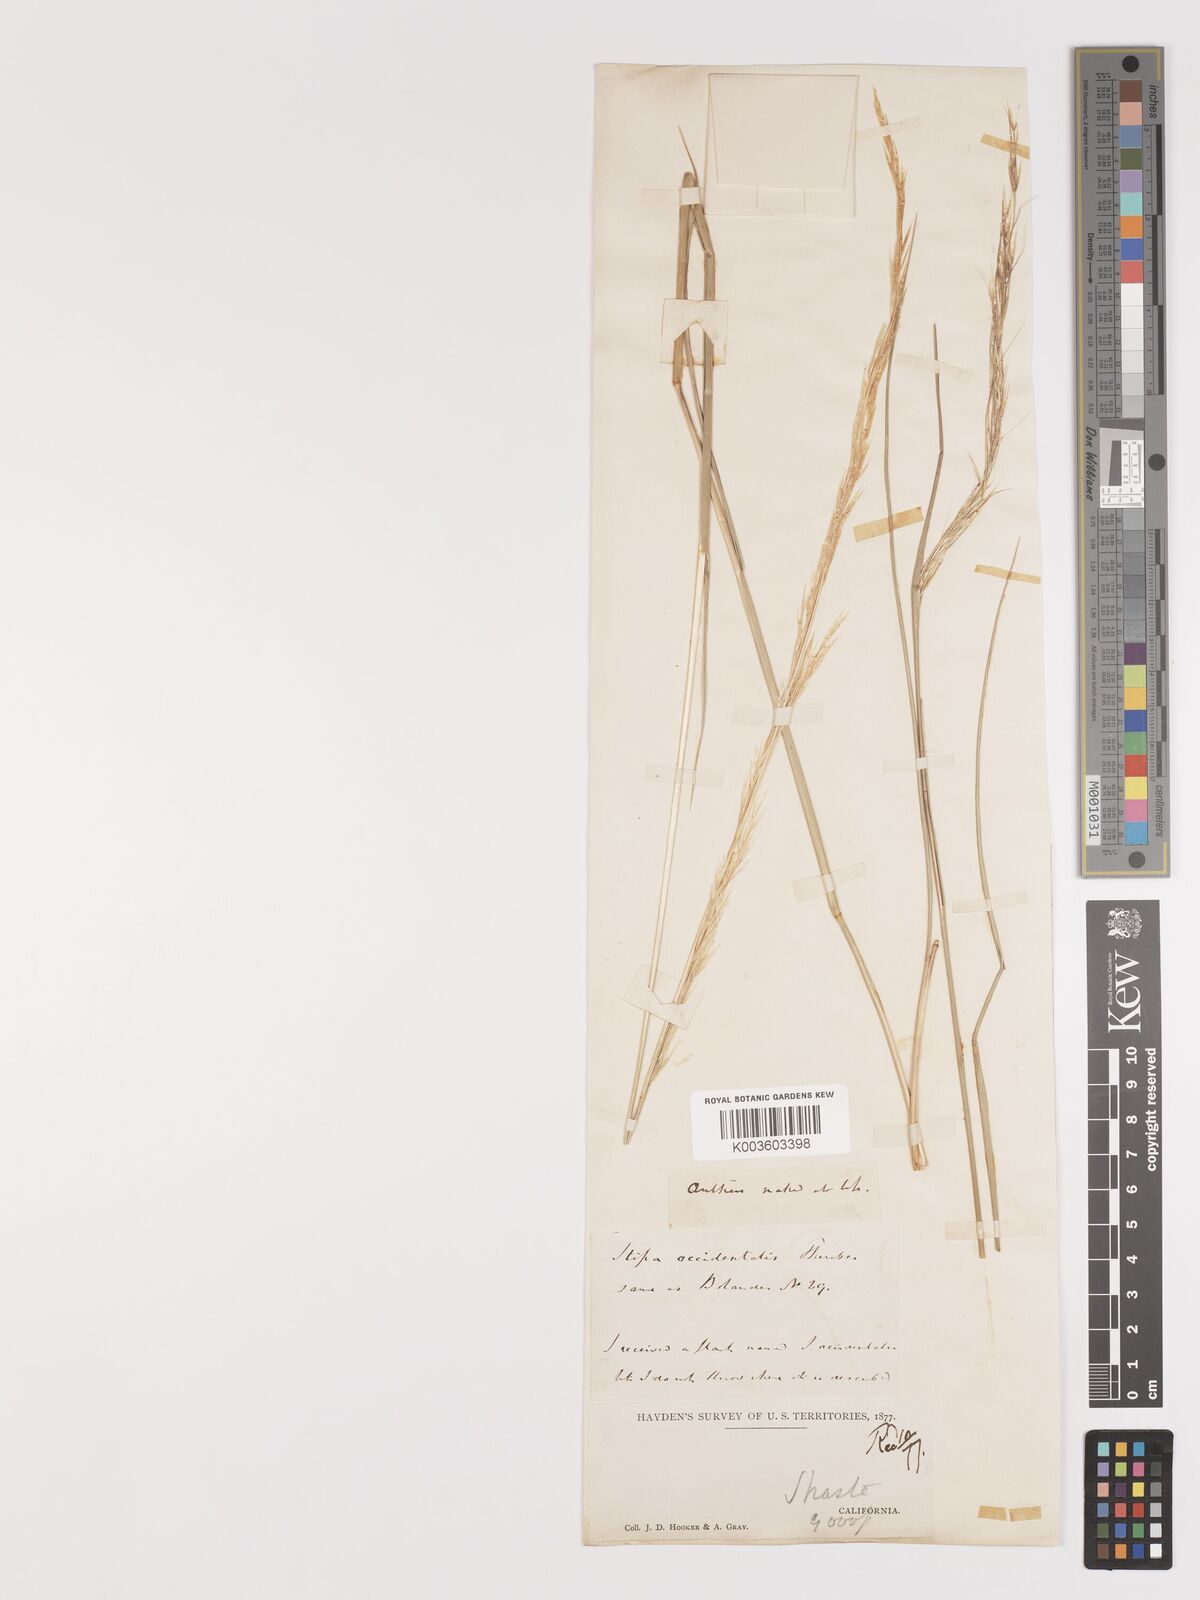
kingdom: Plantae
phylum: Tracheophyta
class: Liliopsida
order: Poales
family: Poaceae
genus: Eriocoma
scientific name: Eriocoma thurberiana
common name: Thurber's needlegrass
